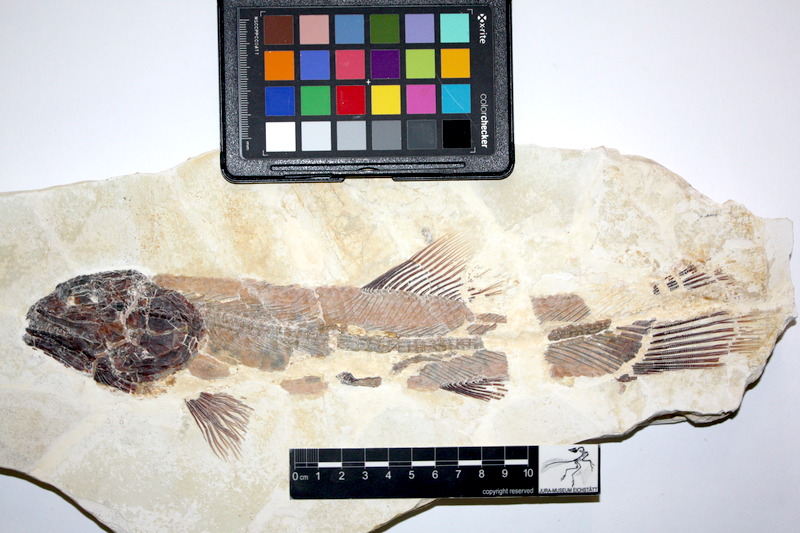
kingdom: Animalia
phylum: Chordata
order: Amiiformes
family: Amiidae
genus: Amiopsis
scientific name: Amiopsis lepidota
